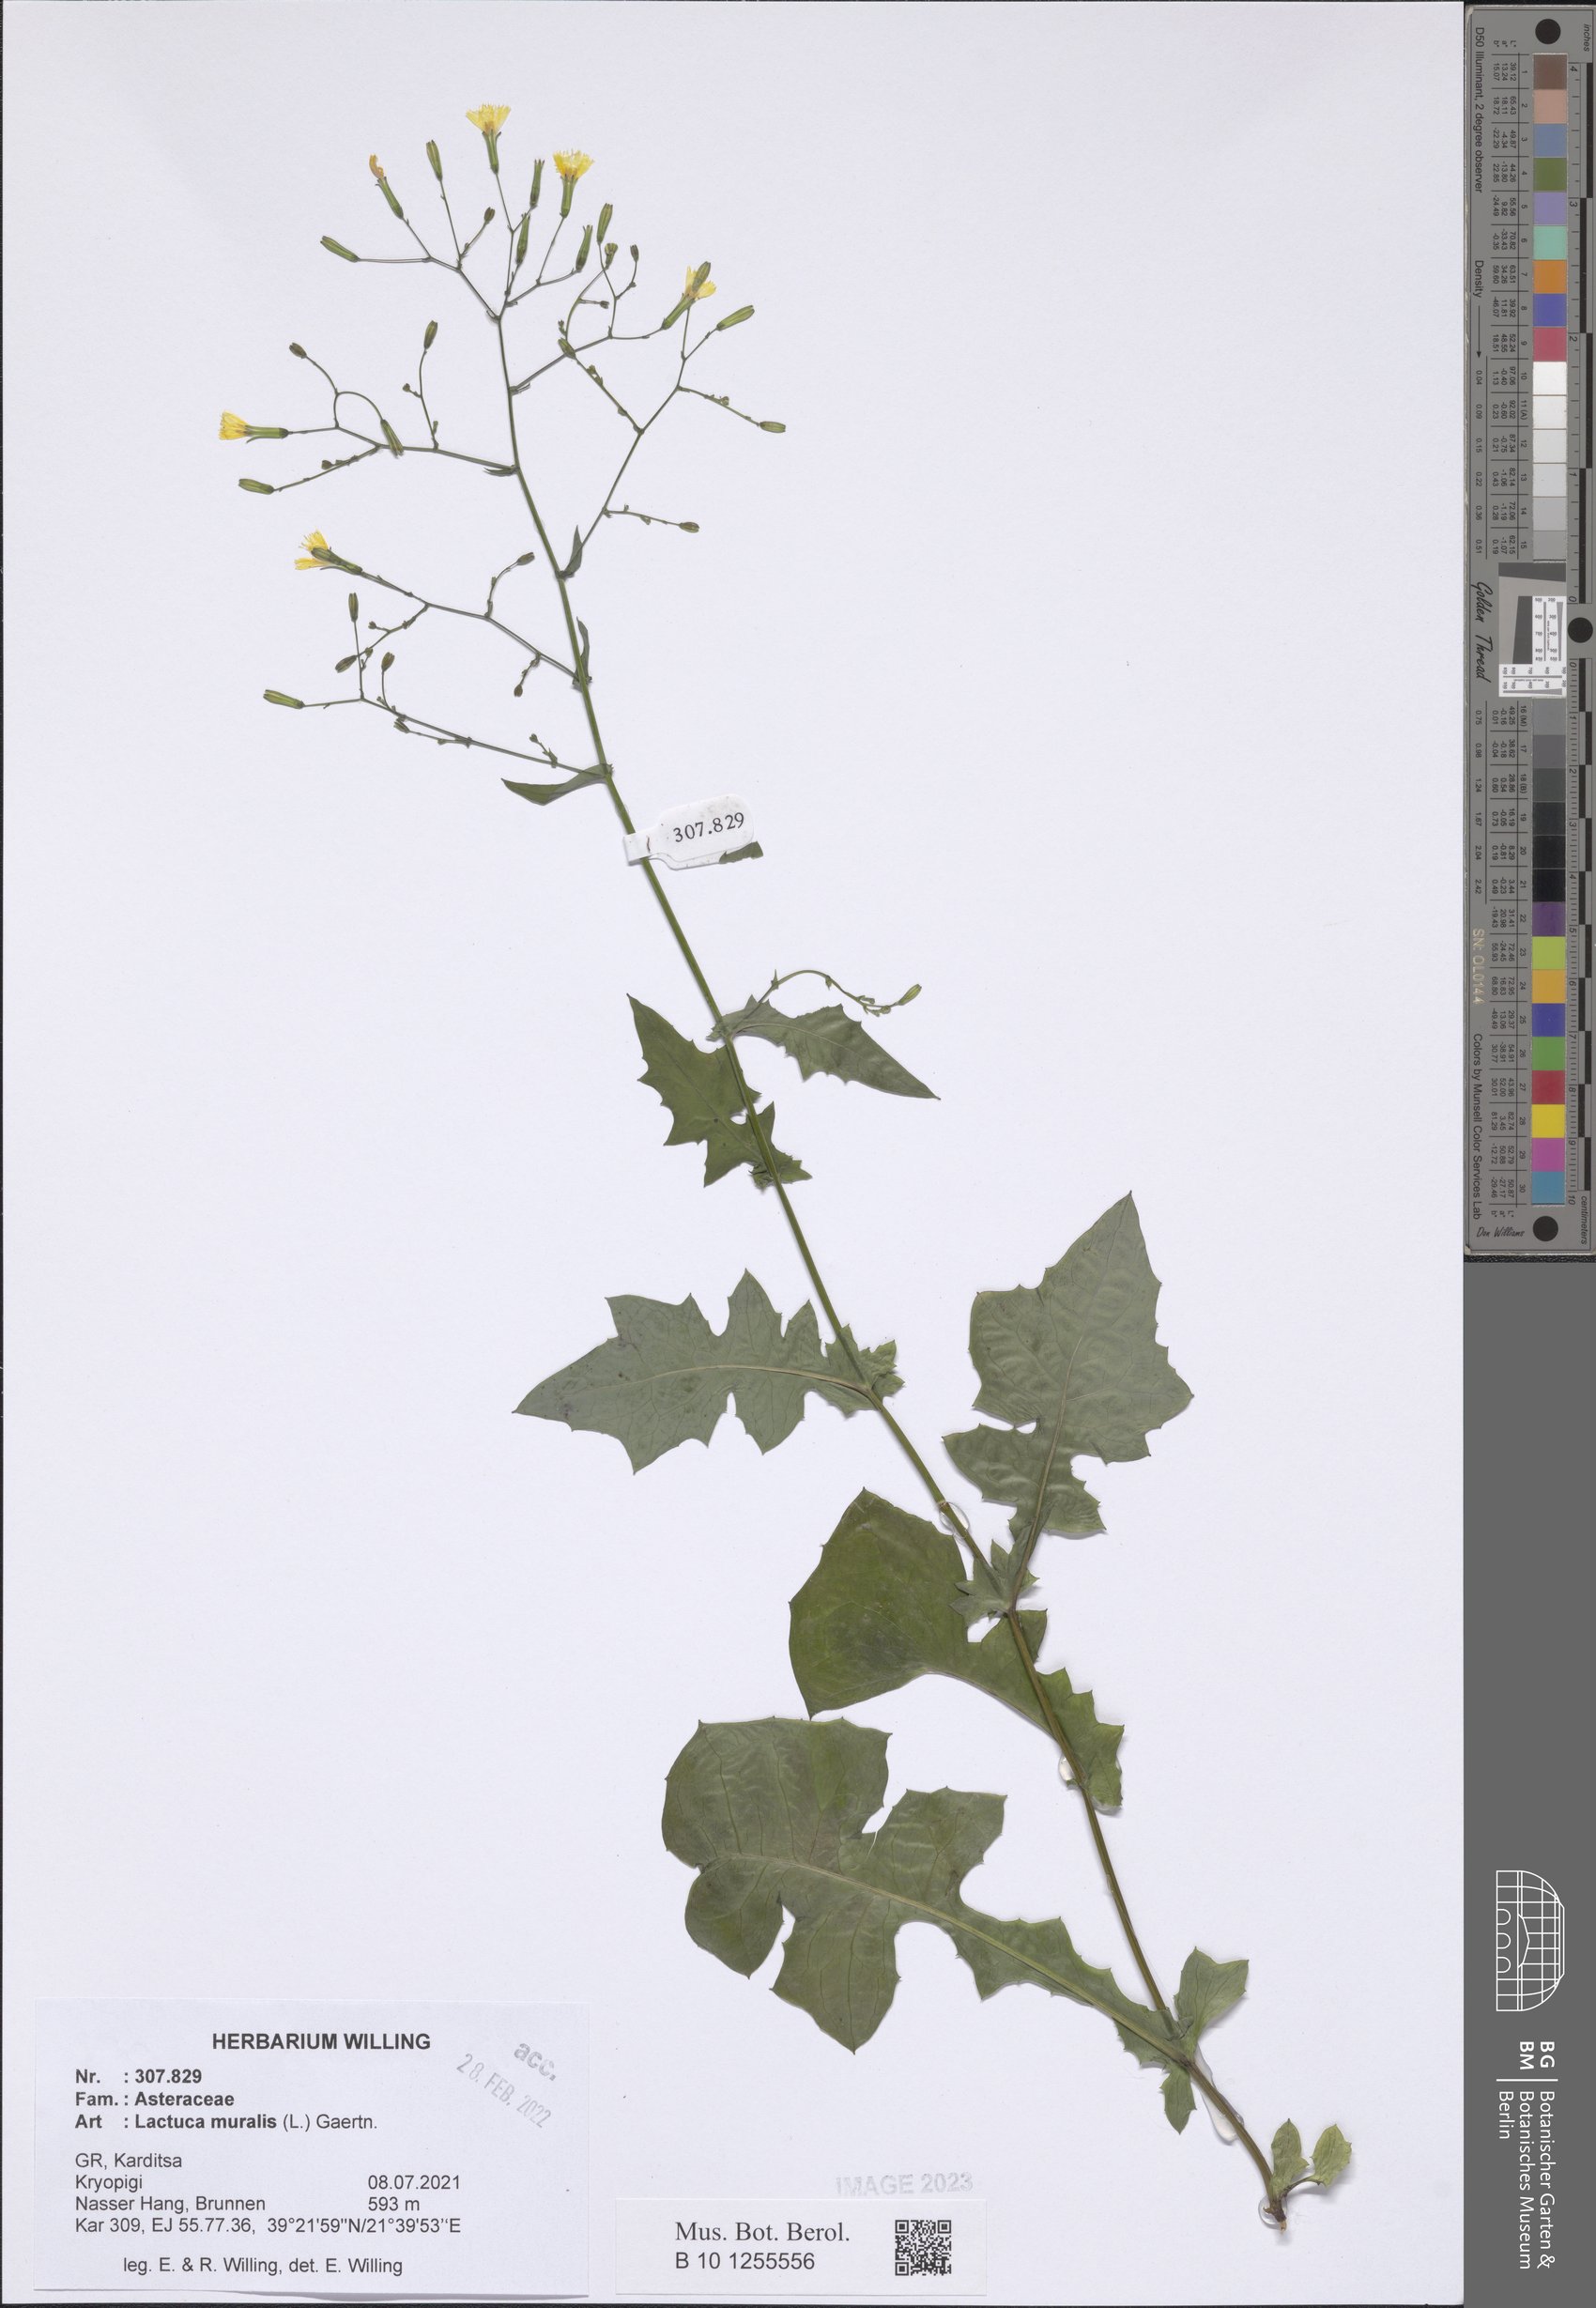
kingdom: Plantae
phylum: Tracheophyta
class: Magnoliopsida
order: Asterales
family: Asteraceae
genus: Mycelis
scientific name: Mycelis muralis
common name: Wall lettuce
